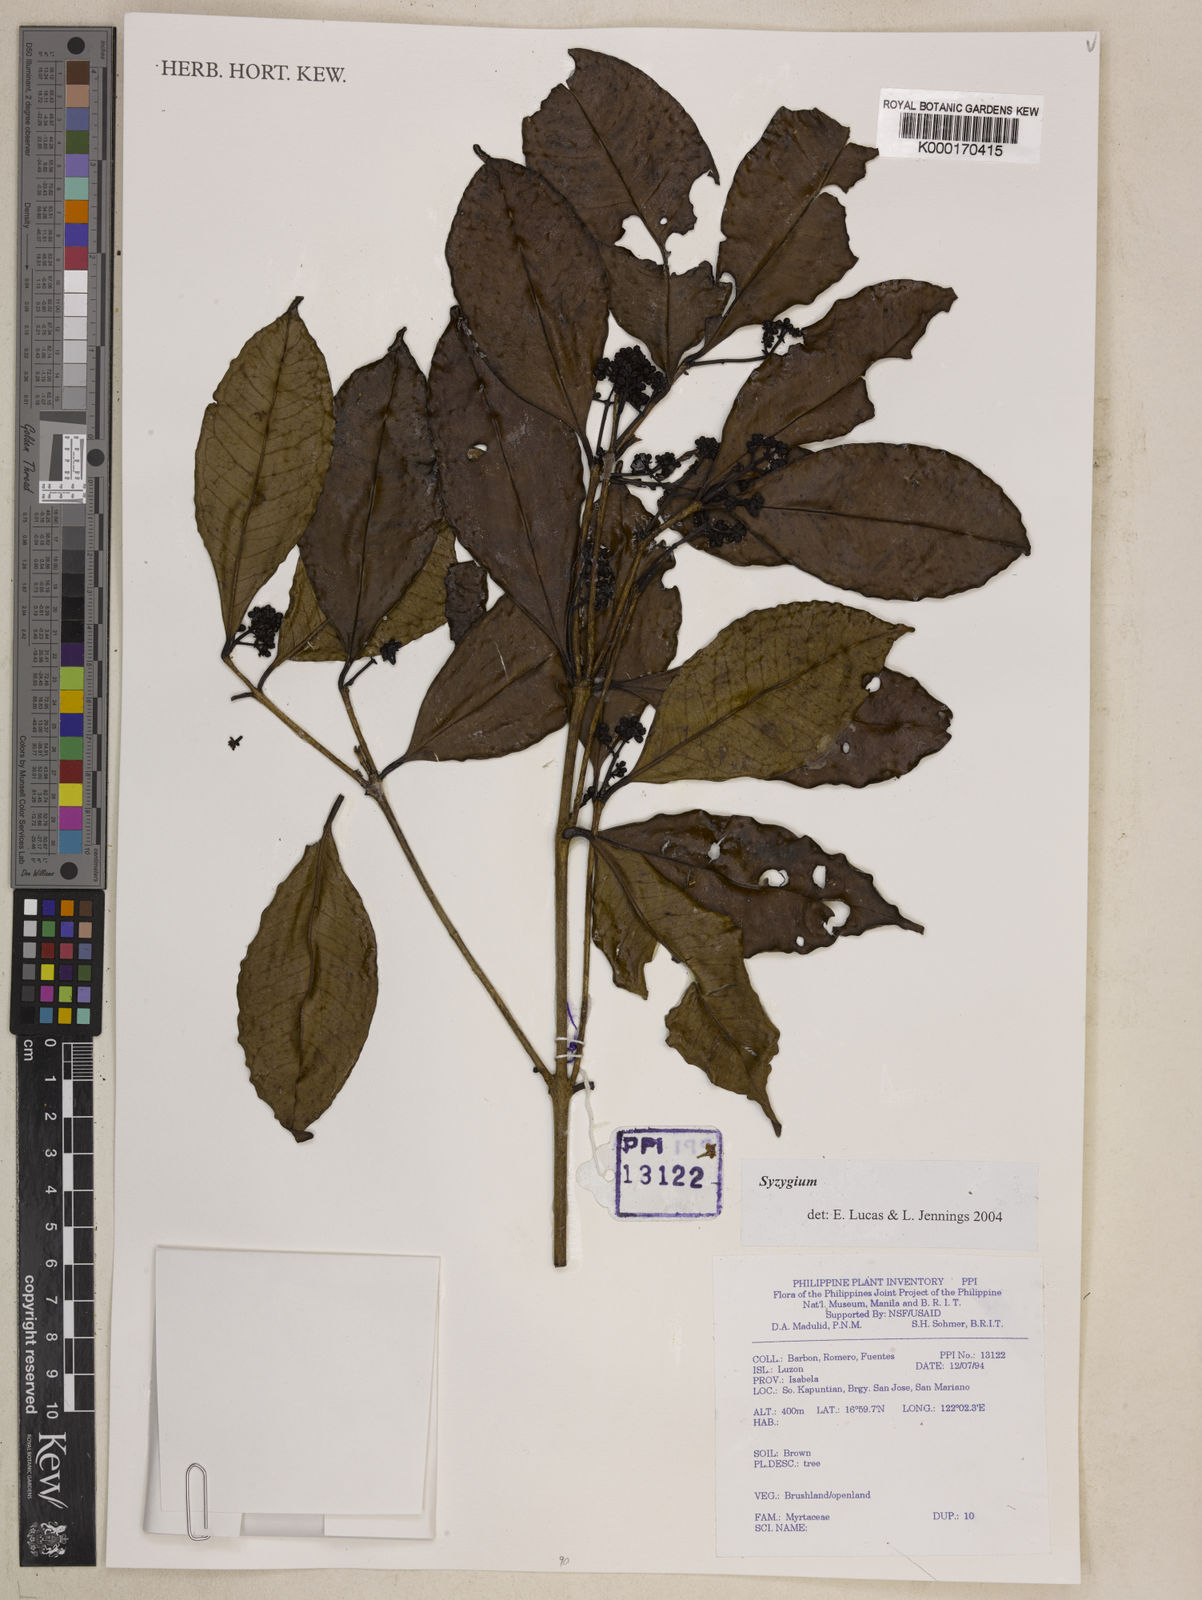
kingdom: Plantae
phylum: Tracheophyta
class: Magnoliopsida
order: Myrtales
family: Myrtaceae
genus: Syzygium
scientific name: Syzygium
